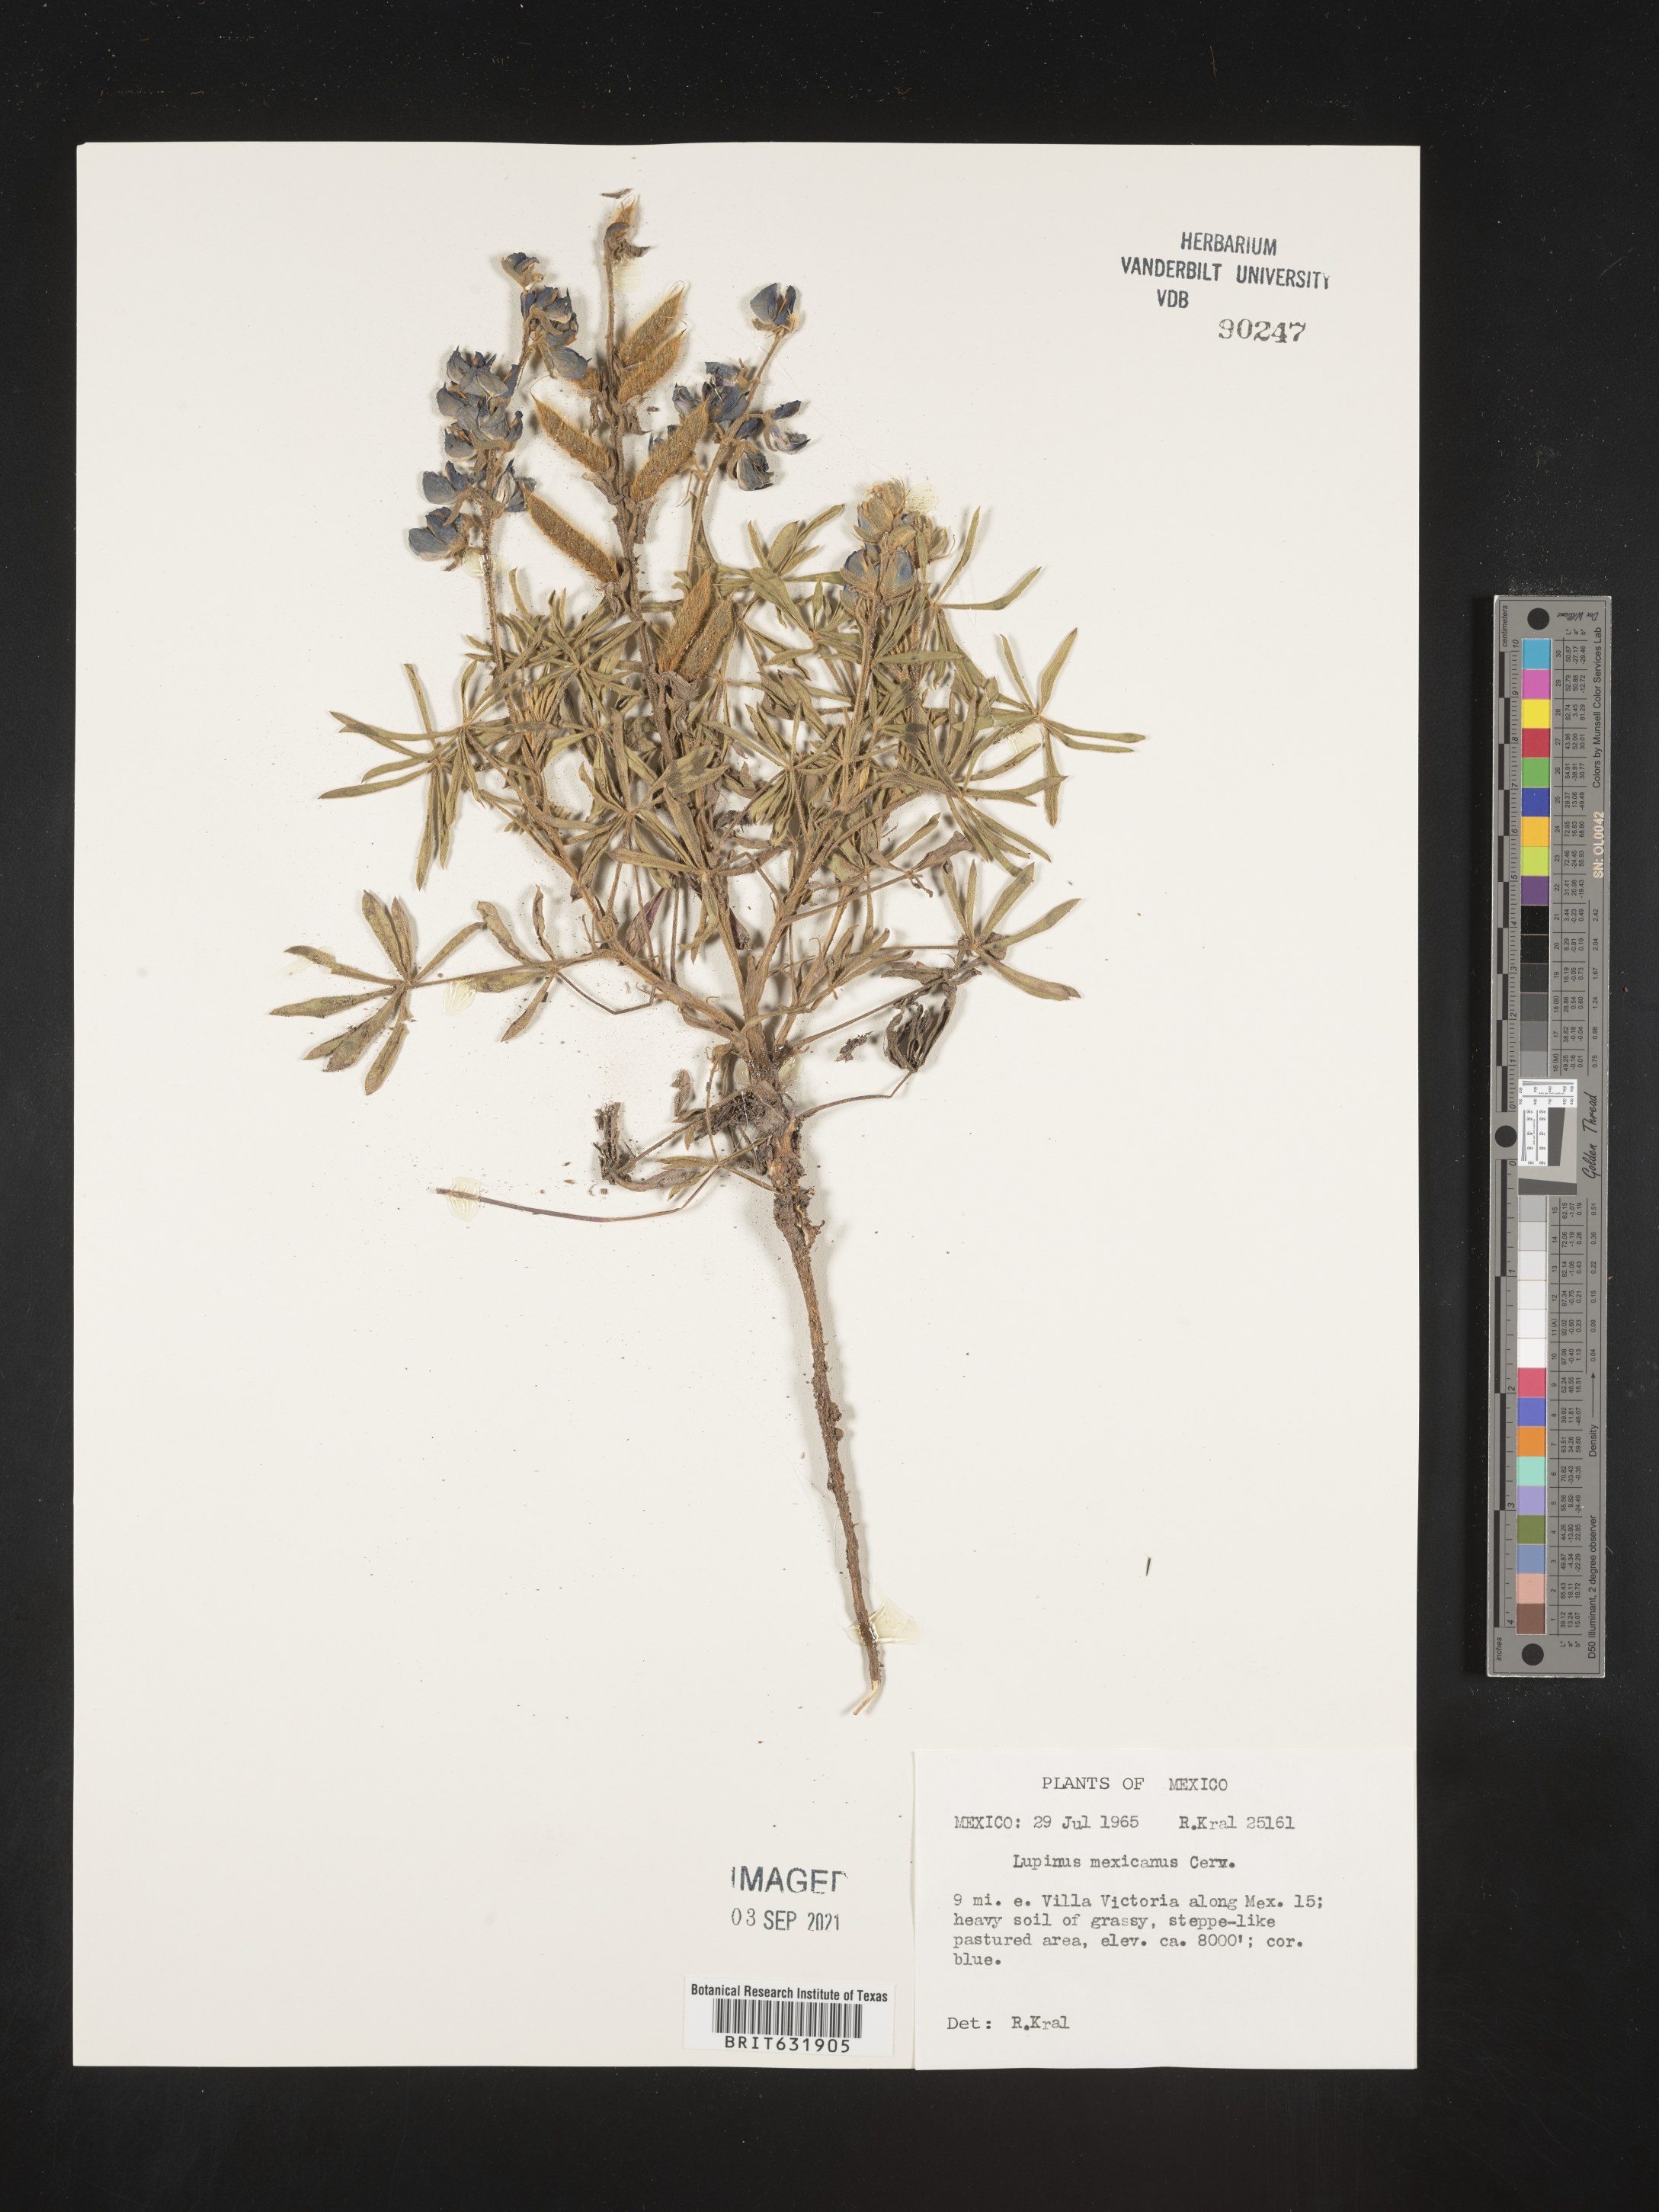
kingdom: Plantae
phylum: Tracheophyta
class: Magnoliopsida
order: Fabales
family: Fabaceae
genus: Lupinus
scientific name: Lupinus
